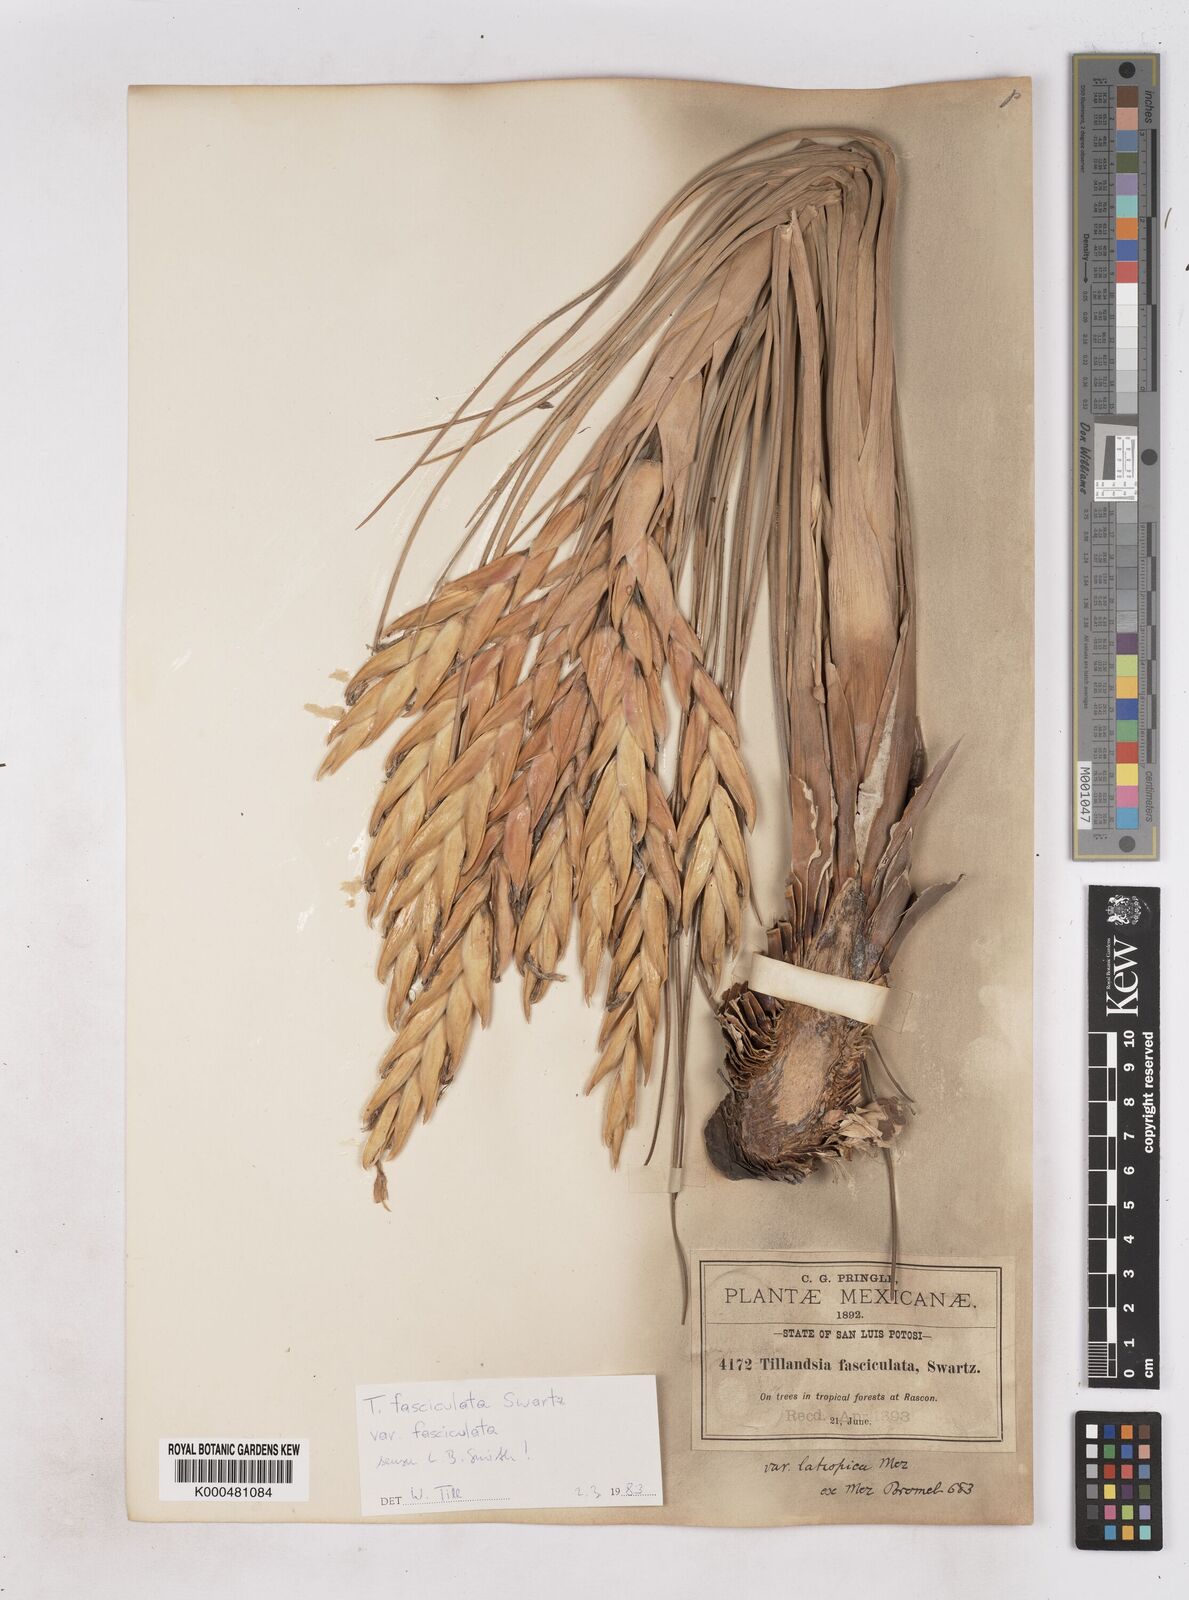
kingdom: Plantae
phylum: Tracheophyta
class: Liliopsida
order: Poales
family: Bromeliaceae
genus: Tillandsia
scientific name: Tillandsia fasciculata
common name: Giant airplant
